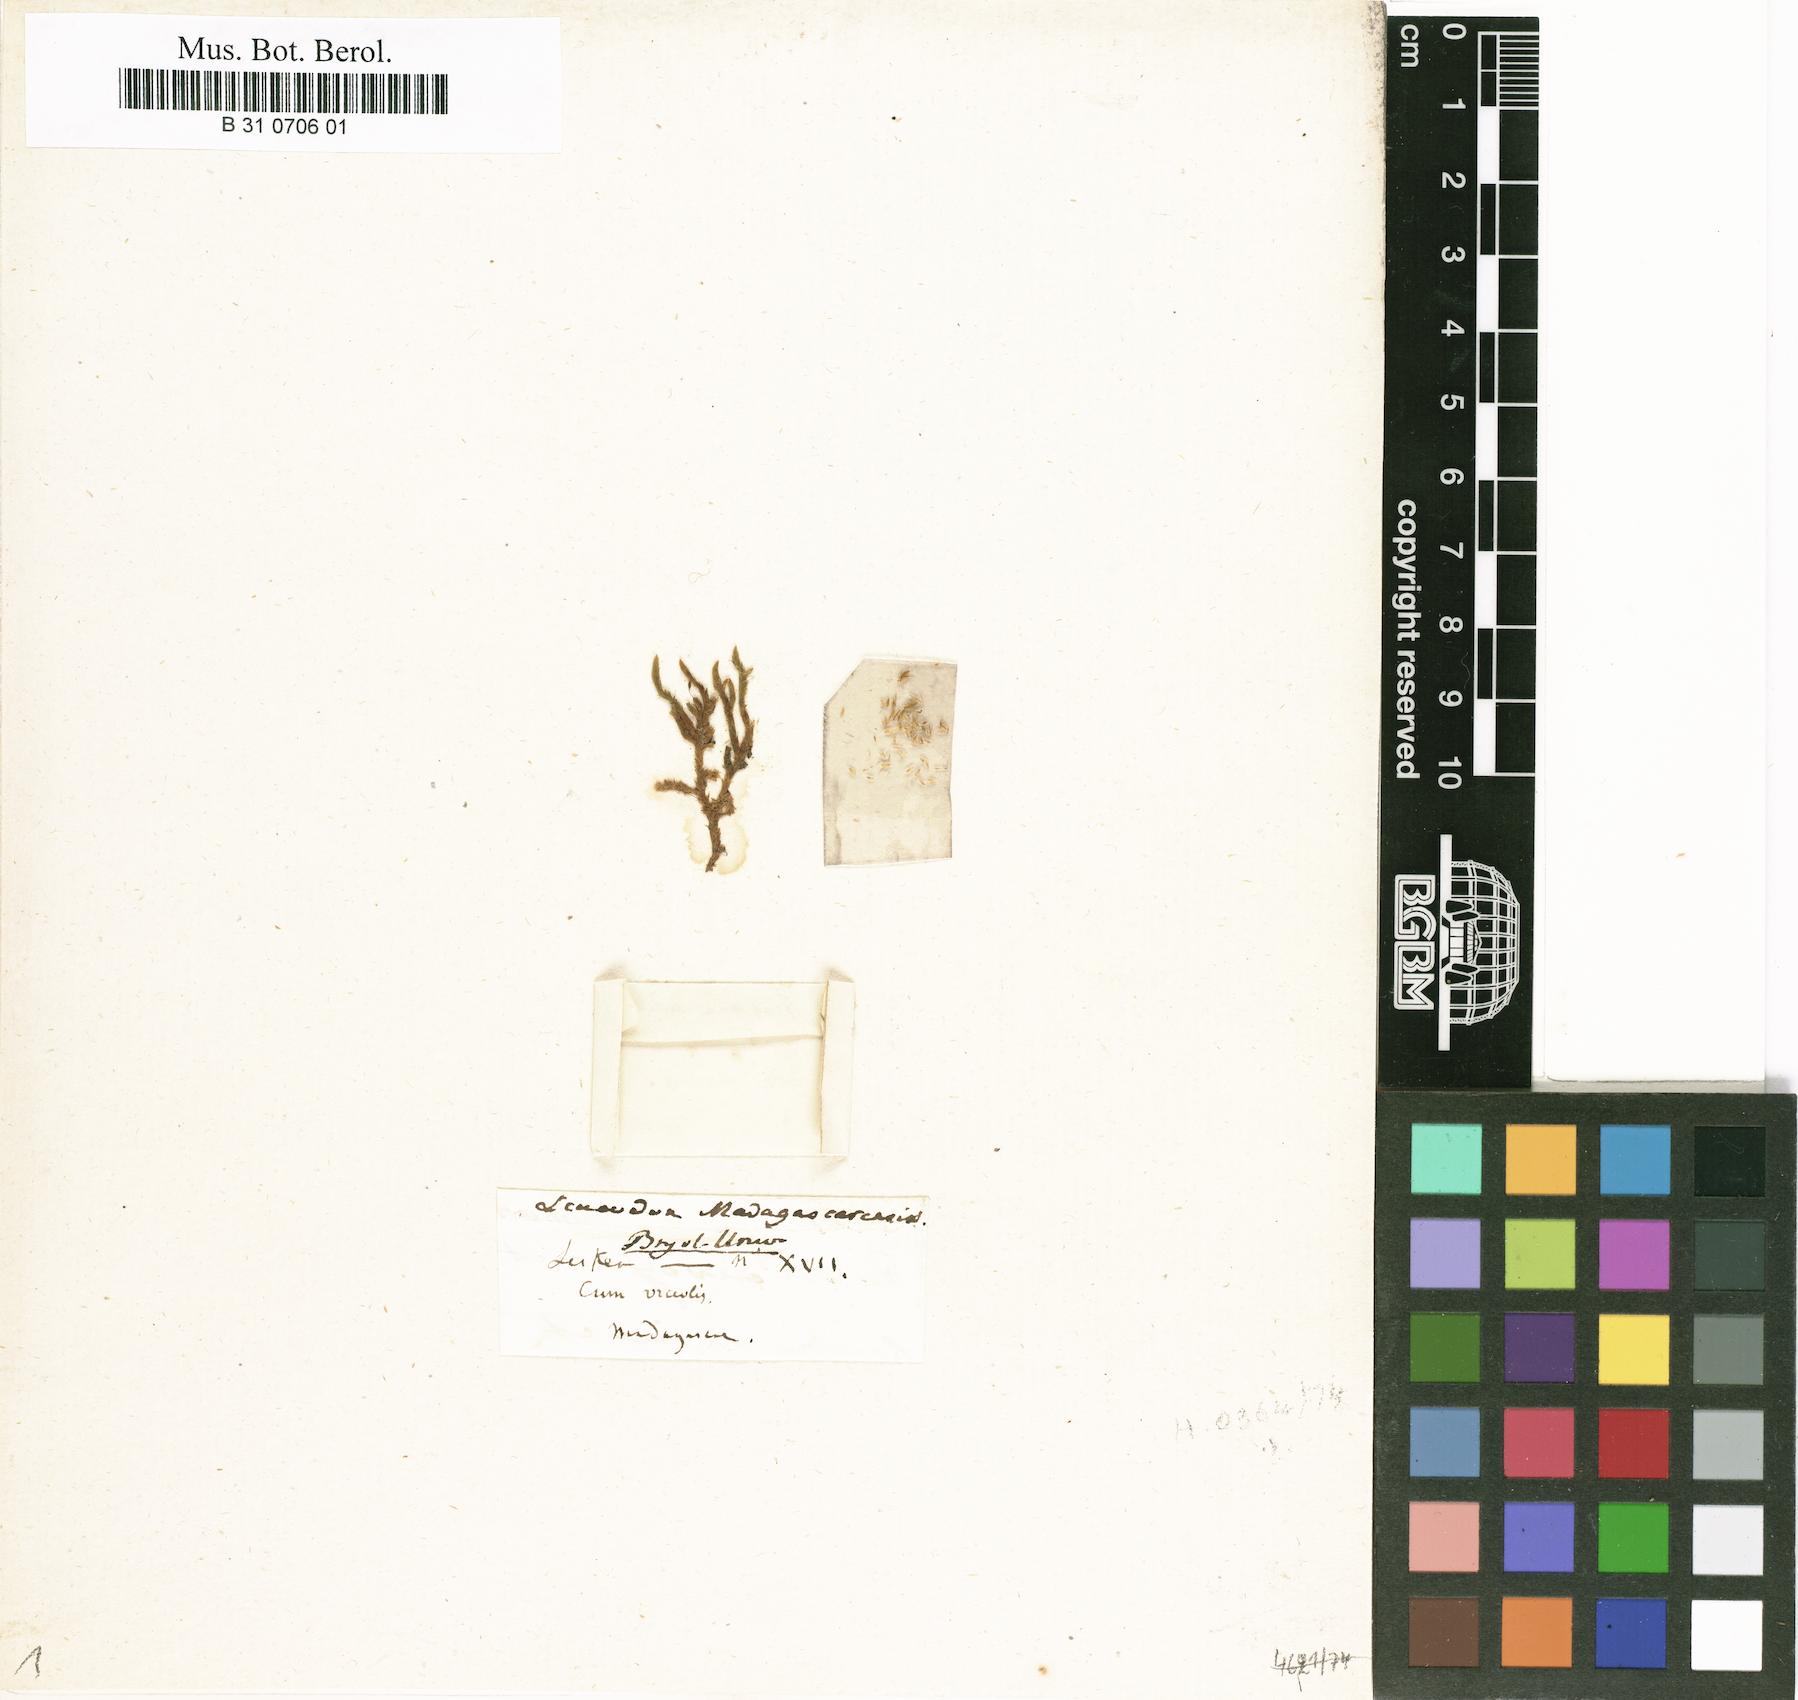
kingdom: Plantae
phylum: Bryophyta
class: Bryopsida
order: Hypnales
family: Sematophyllaceae
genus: Meiothecium
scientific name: Meiothecium madagascariense
